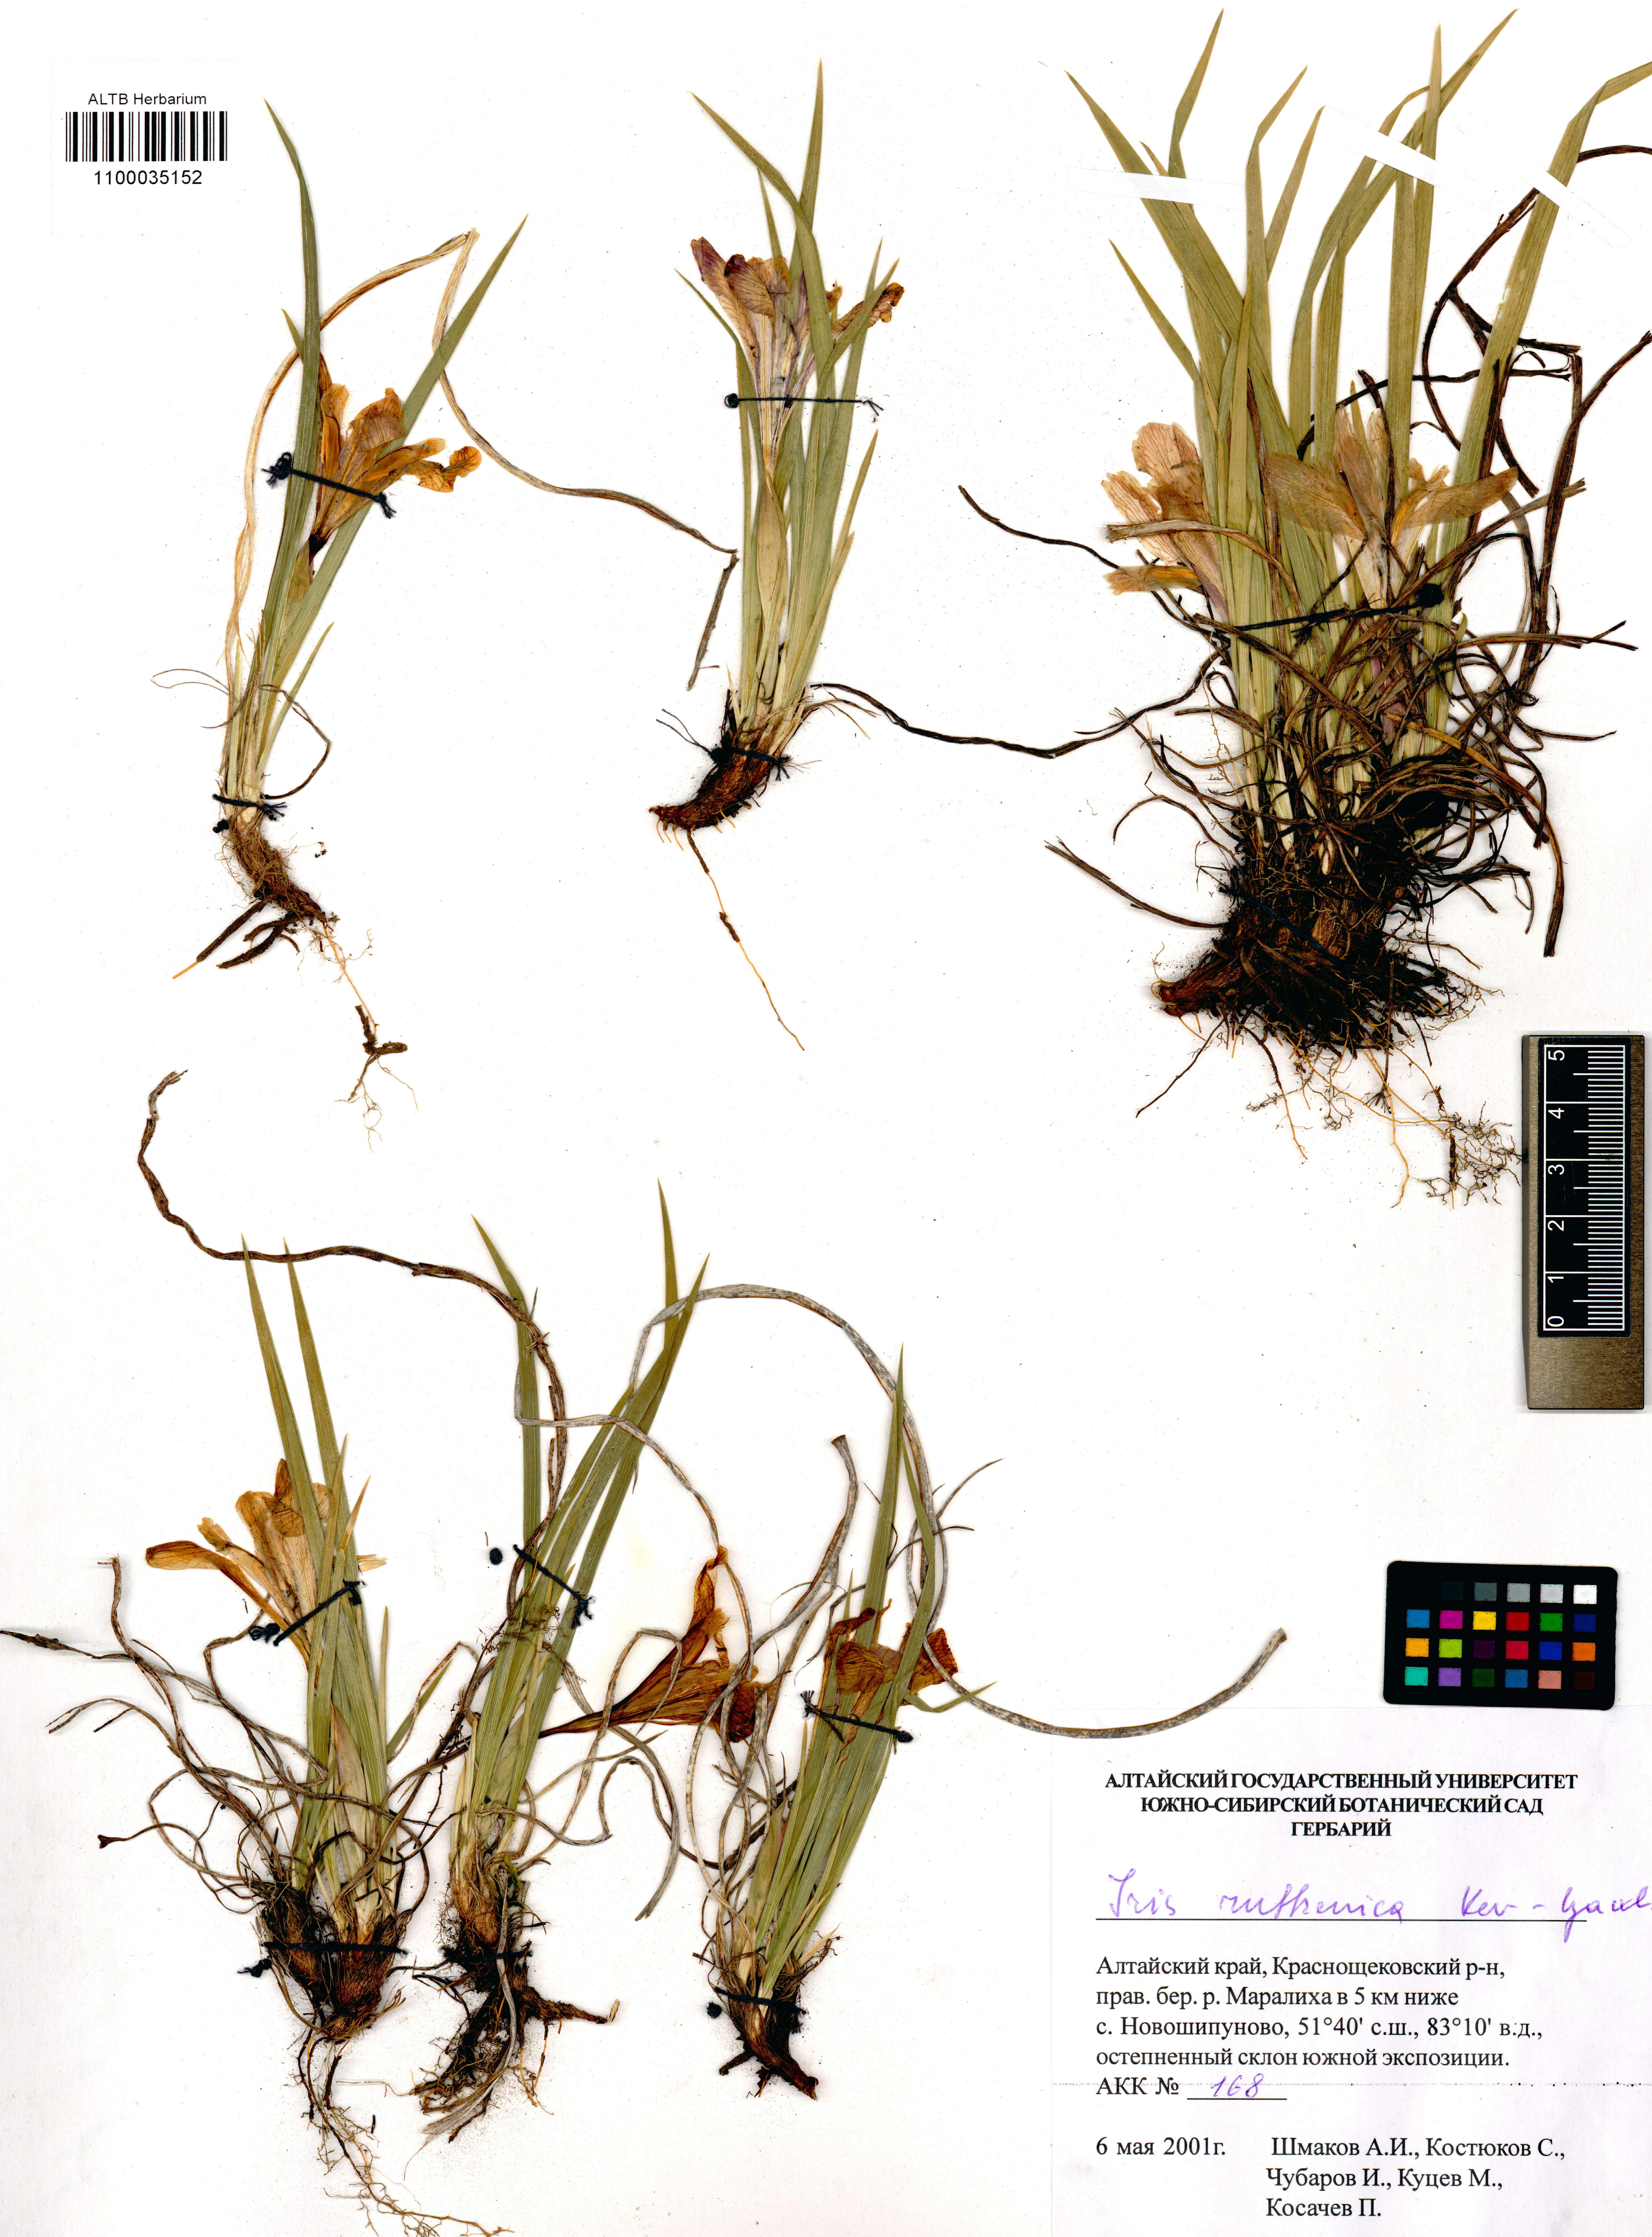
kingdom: Plantae
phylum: Tracheophyta
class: Liliopsida
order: Asparagales
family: Iridaceae
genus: Iris
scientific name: Iris ruthenica
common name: Purple-bract iris
